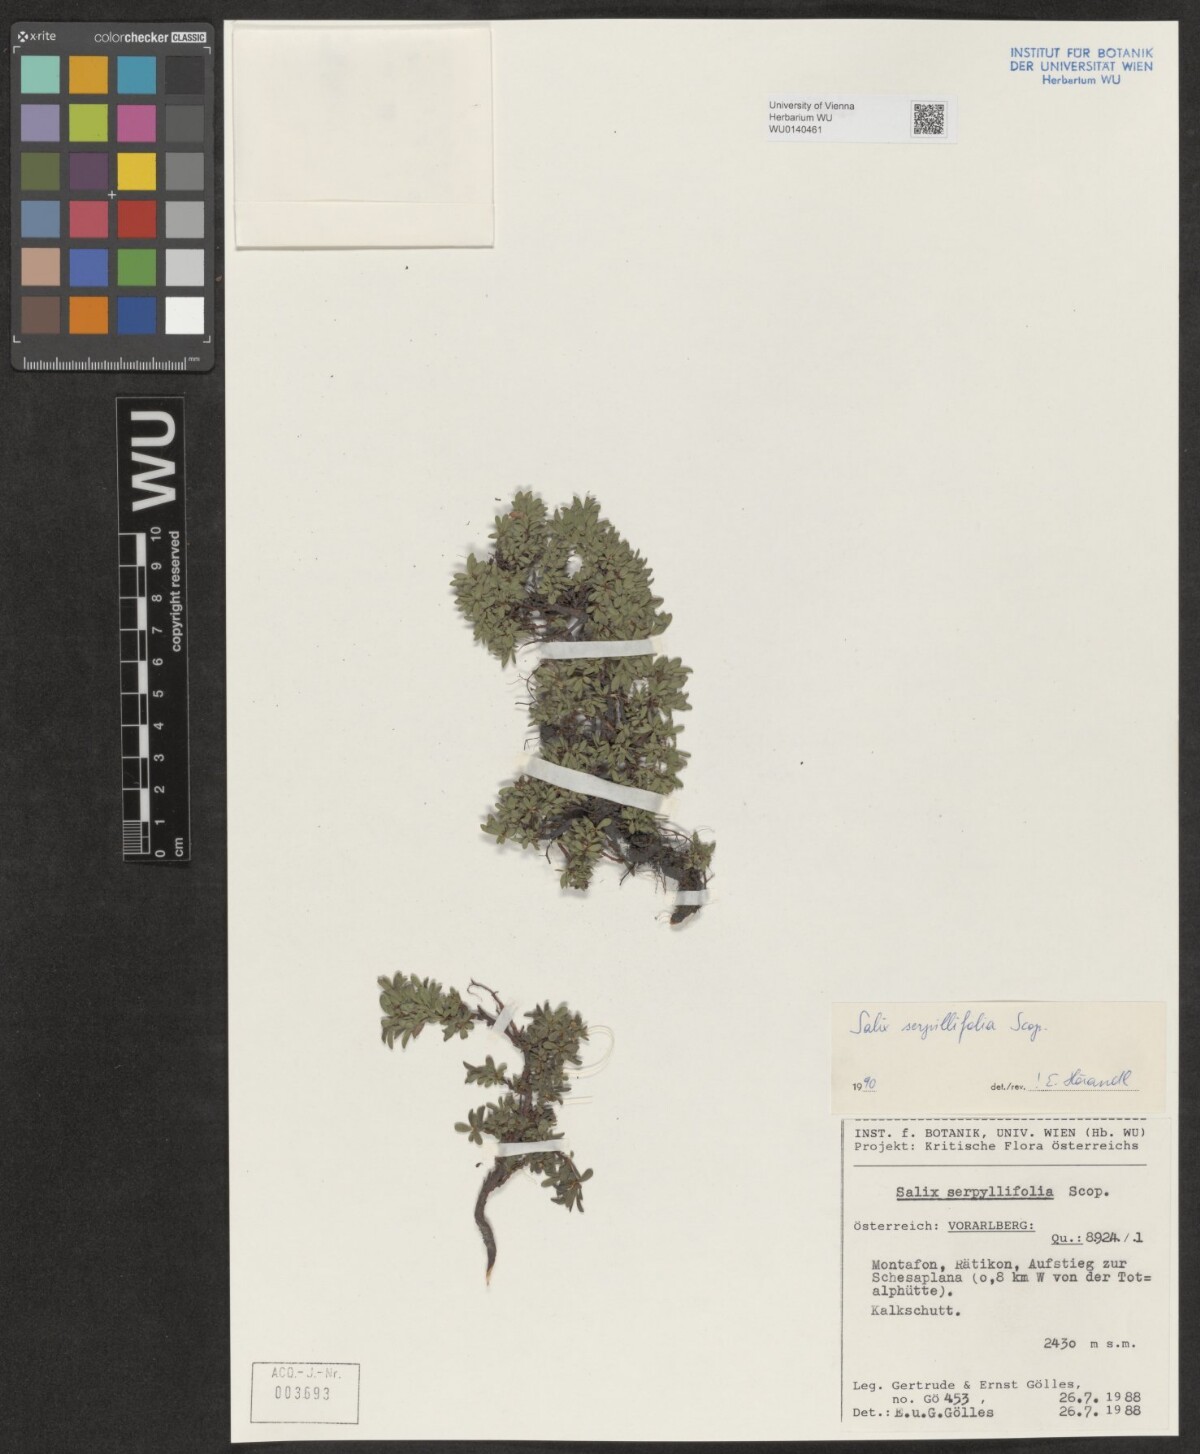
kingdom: Plantae
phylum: Tracheophyta
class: Magnoliopsida
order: Malpighiales
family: Salicaceae
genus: Salix
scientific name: Salix serpillifolia
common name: Thyme-leaf willow
